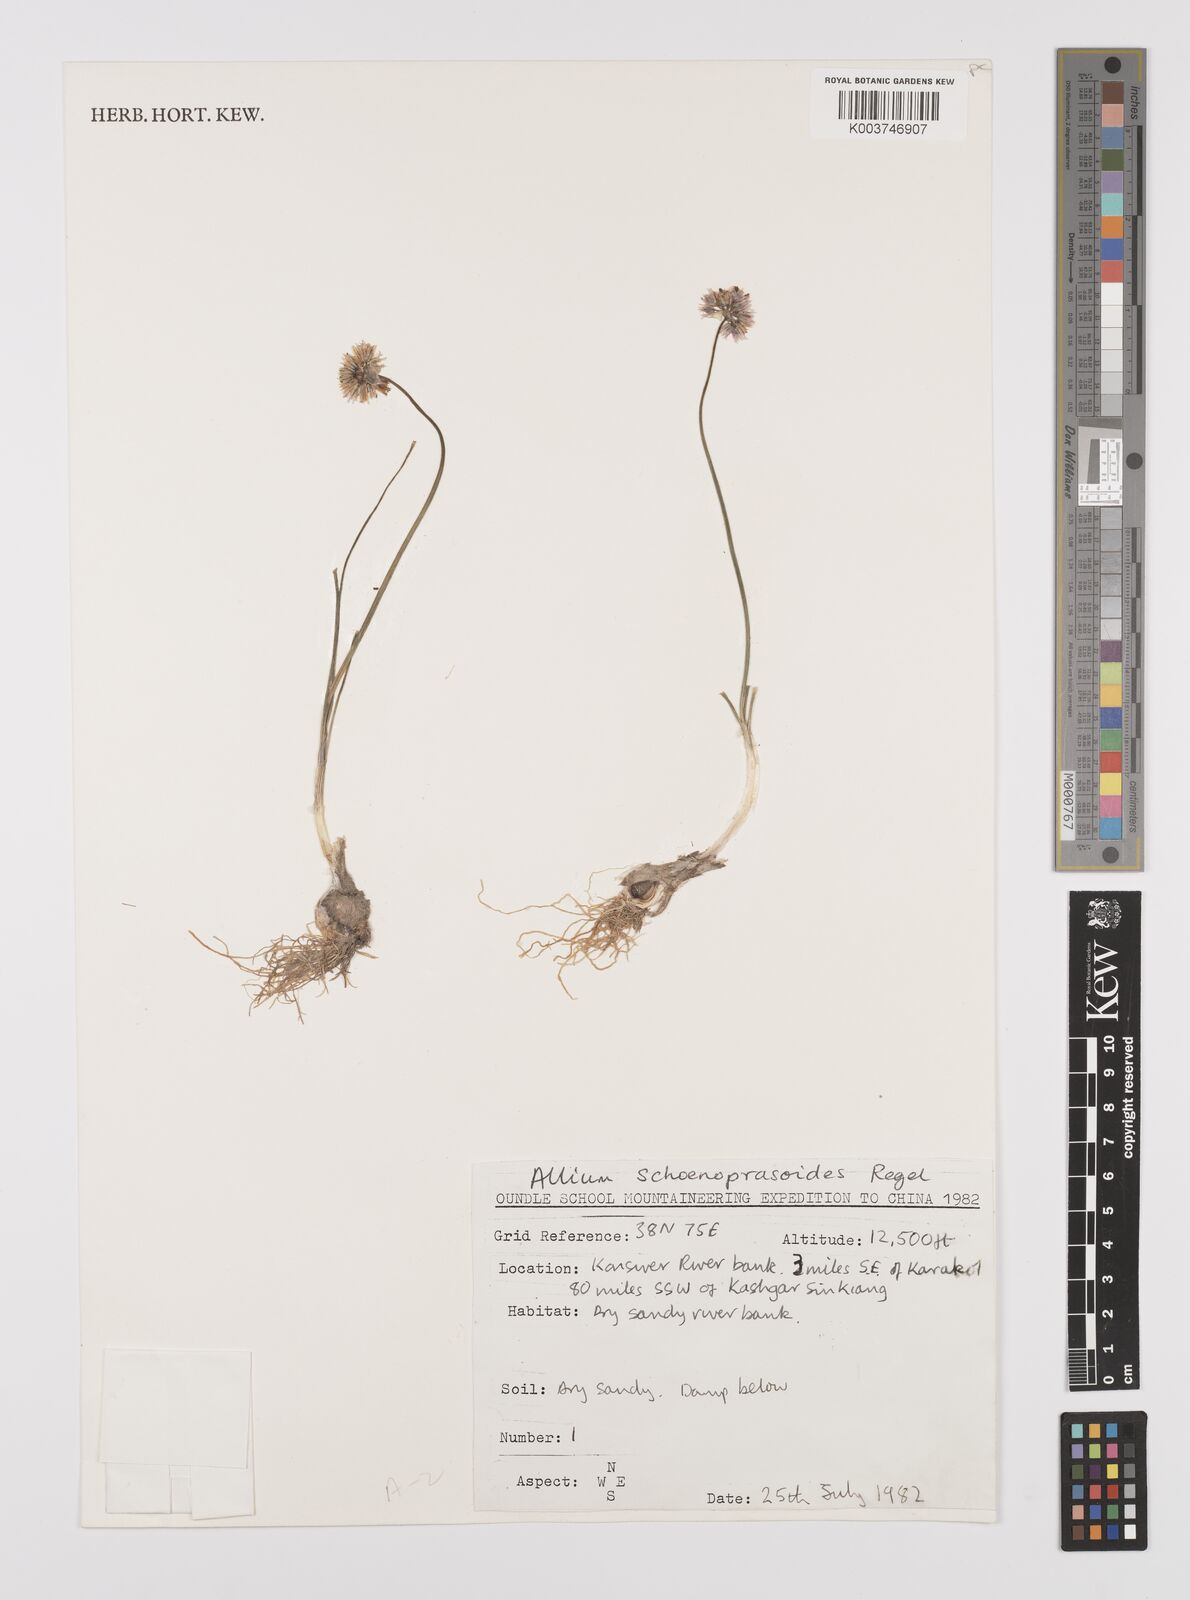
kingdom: Plantae
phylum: Tracheophyta
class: Liliopsida
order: Asparagales
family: Amaryllidaceae
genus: Allium
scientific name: Allium schoenoprasoides
